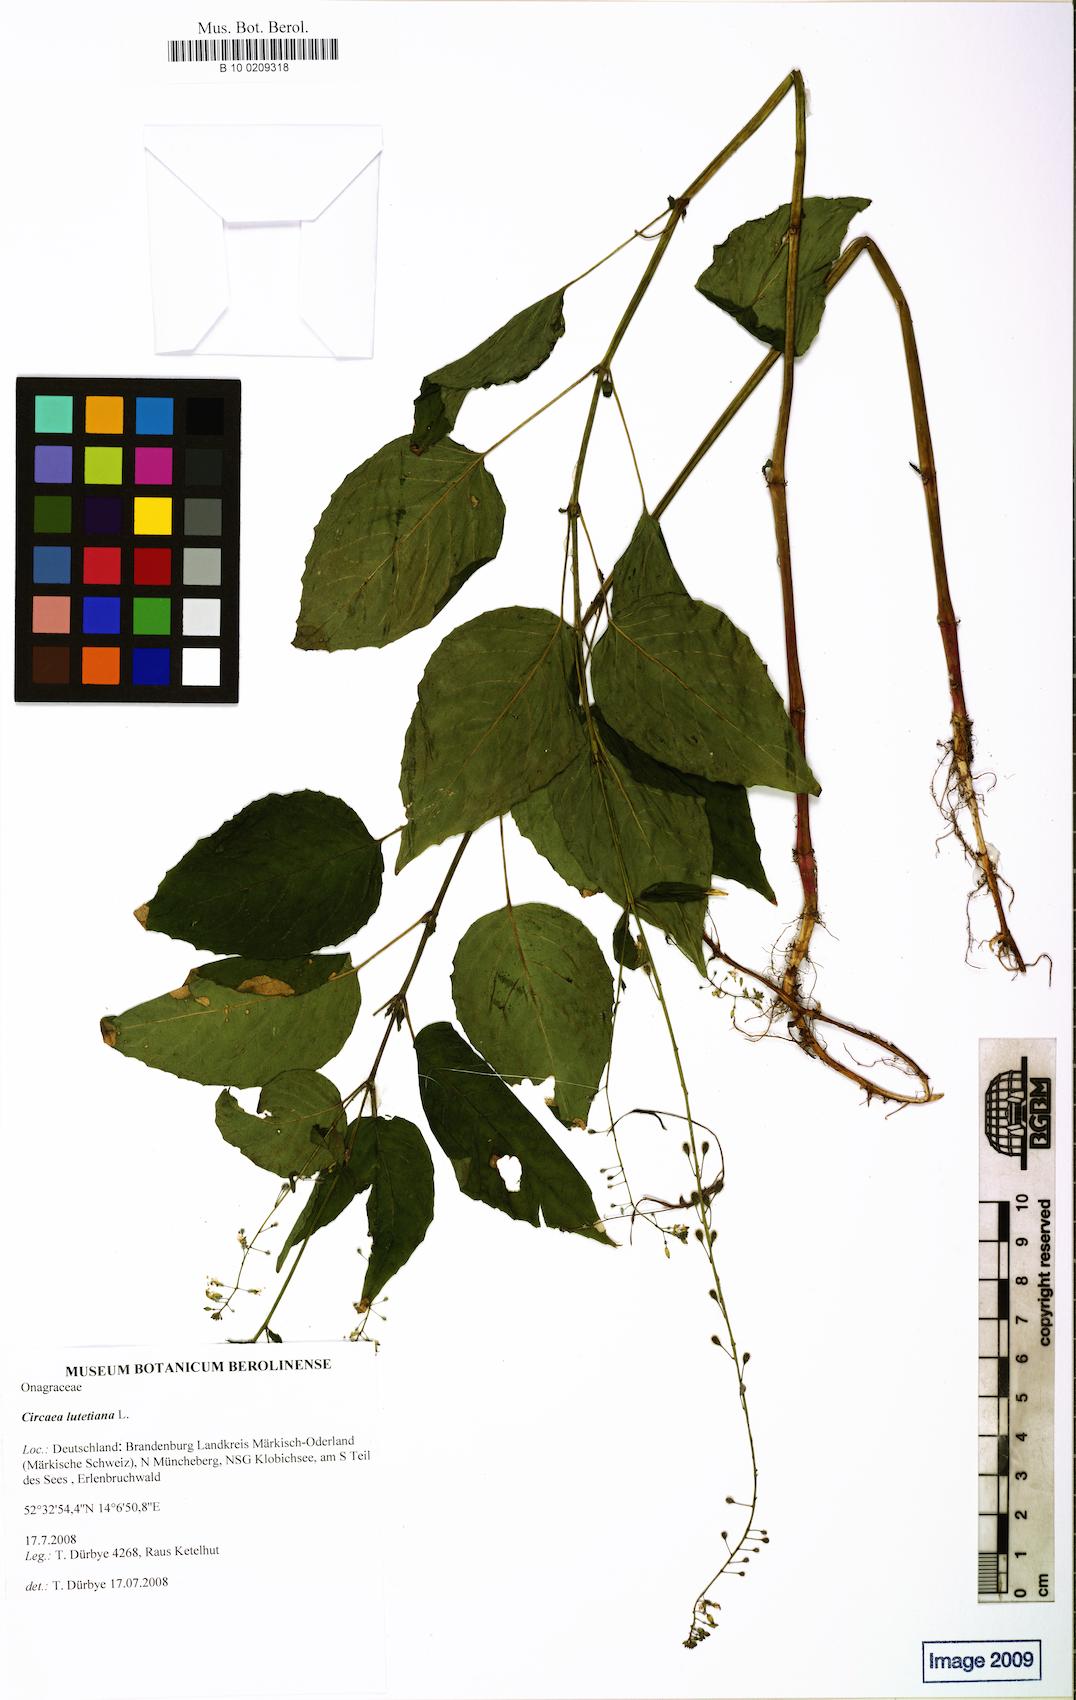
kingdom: Plantae
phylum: Tracheophyta
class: Magnoliopsida
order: Myrtales
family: Onagraceae
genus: Circaea
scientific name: Circaea lutetiana
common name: Enchanter's-nightshade
